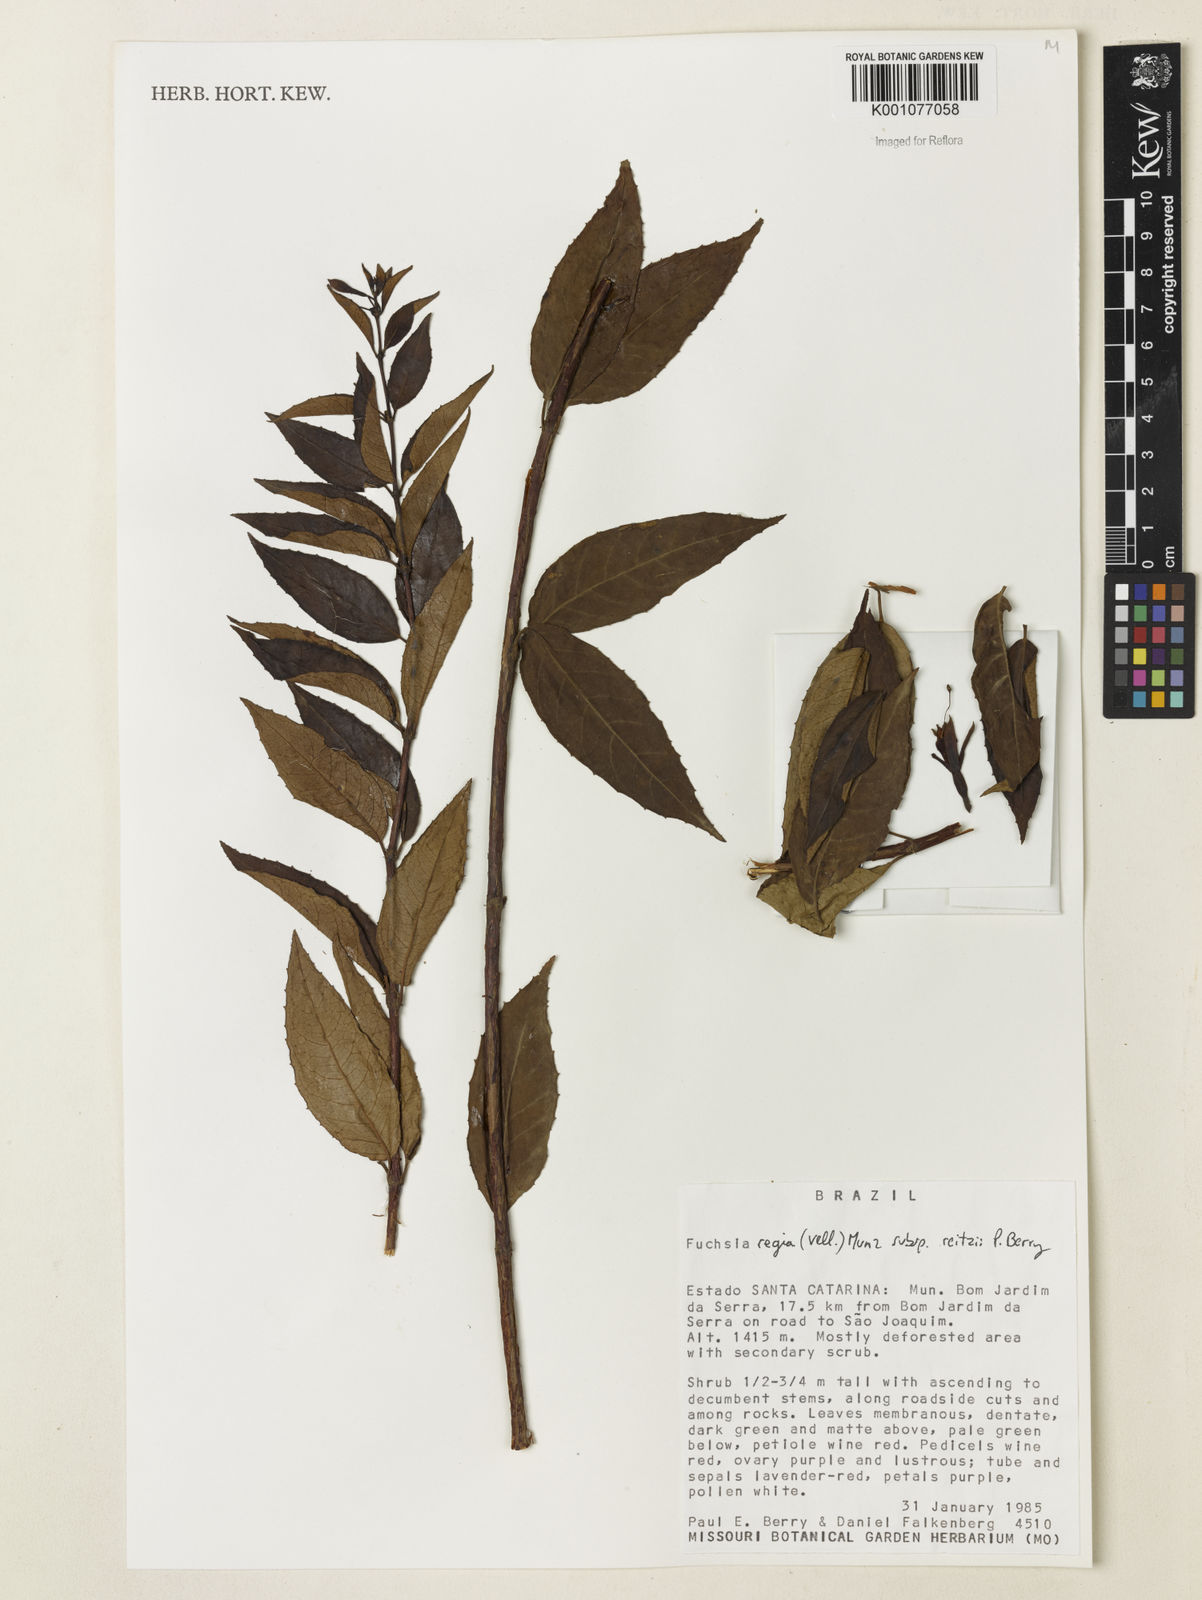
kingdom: Plantae
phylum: Tracheophyta
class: Magnoliopsida
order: Myrtales
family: Onagraceae
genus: Fuchsia
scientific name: Fuchsia regia
